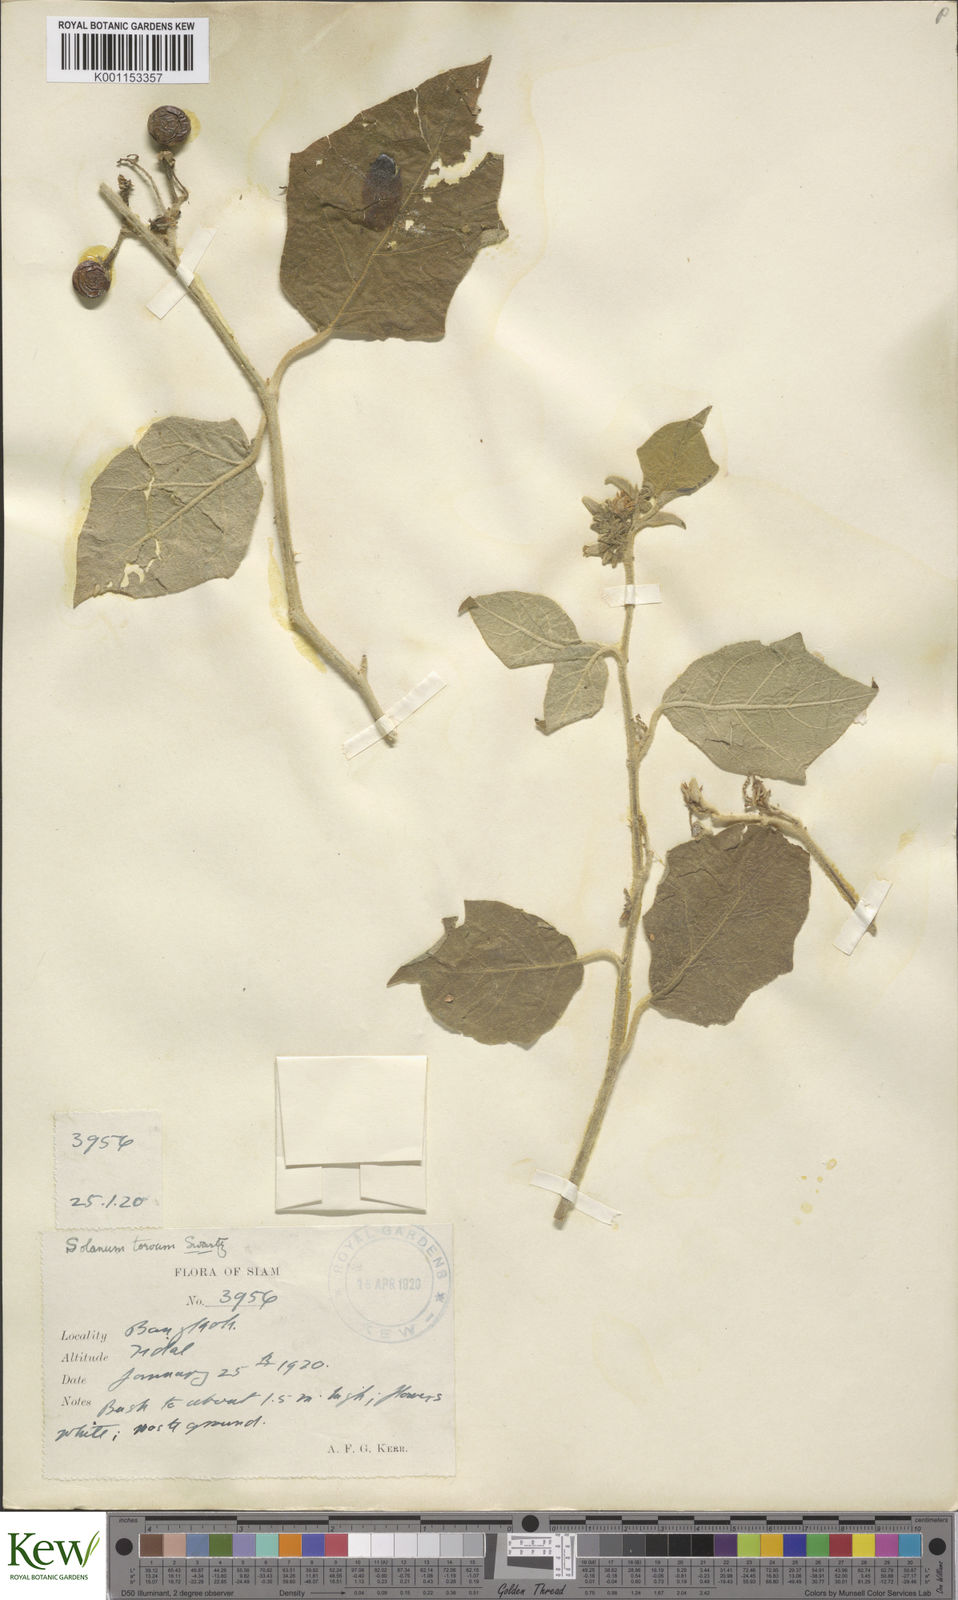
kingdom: Plantae
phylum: Tracheophyta
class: Magnoliopsida
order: Solanales
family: Solanaceae
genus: Solanum
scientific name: Solanum torvum
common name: Turkey berry
